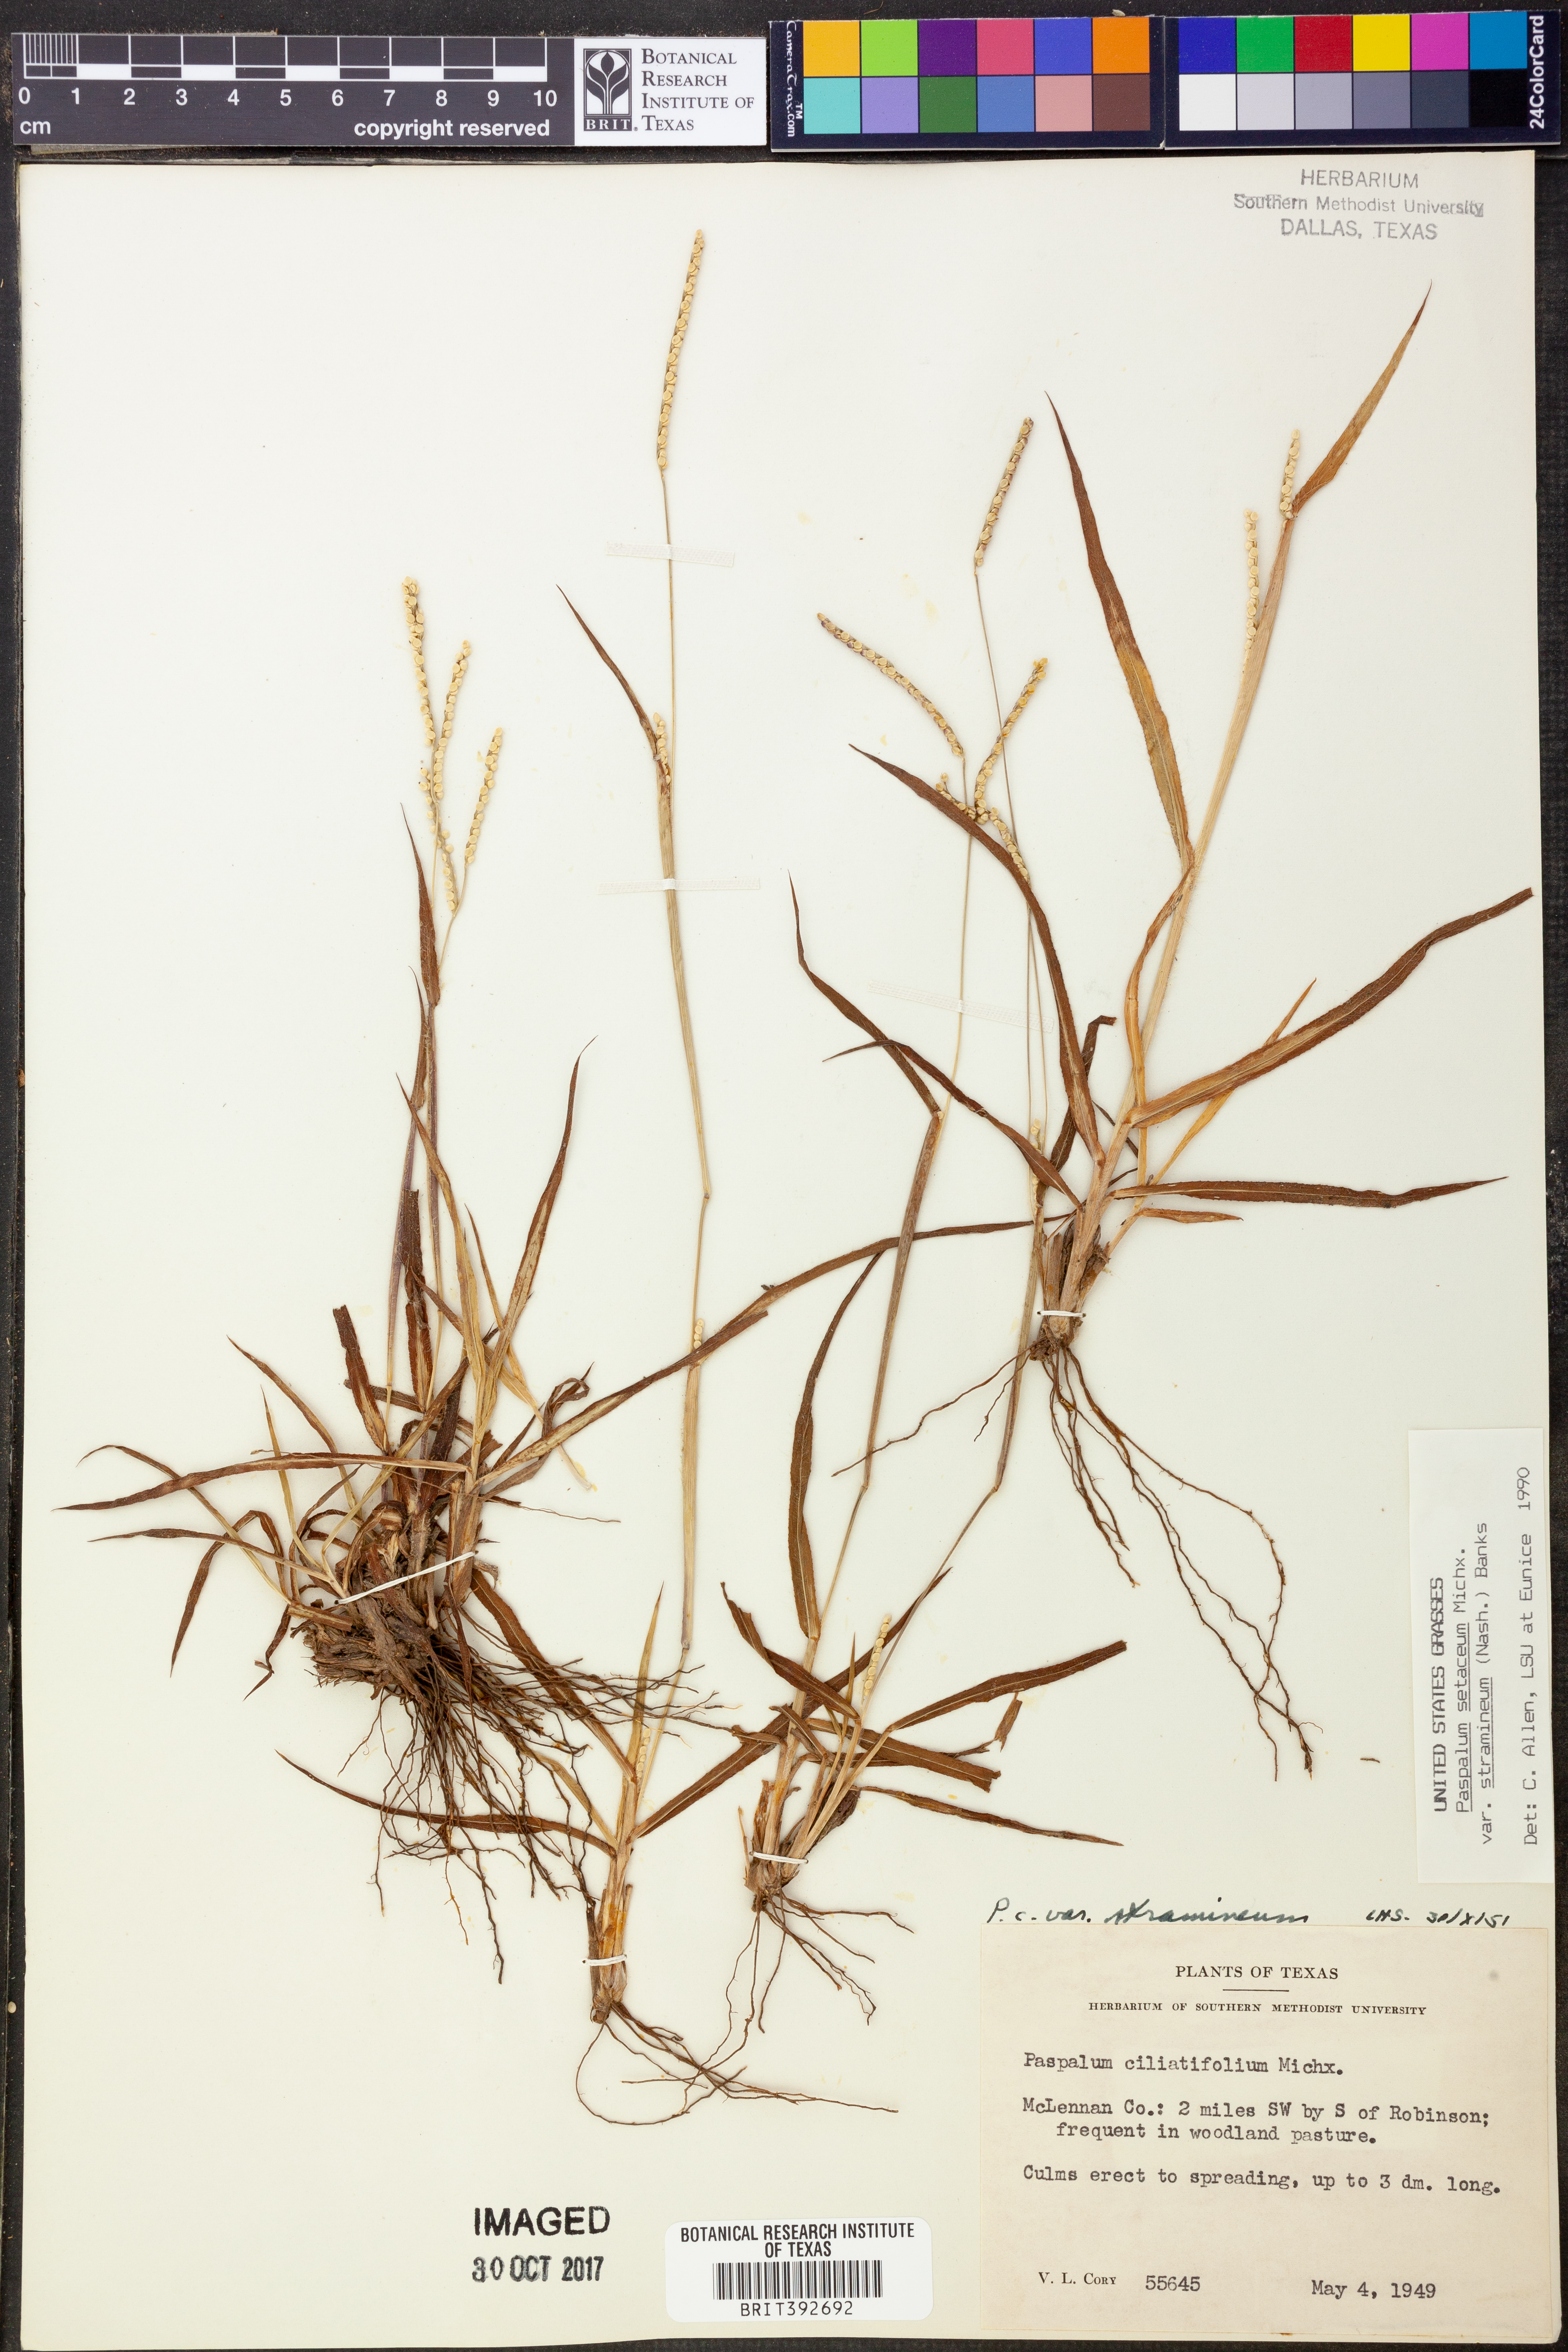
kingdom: Plantae
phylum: Tracheophyta
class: Liliopsida
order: Poales
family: Poaceae
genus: Paspalum
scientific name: Paspalum setaceum
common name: Slender paspalum
